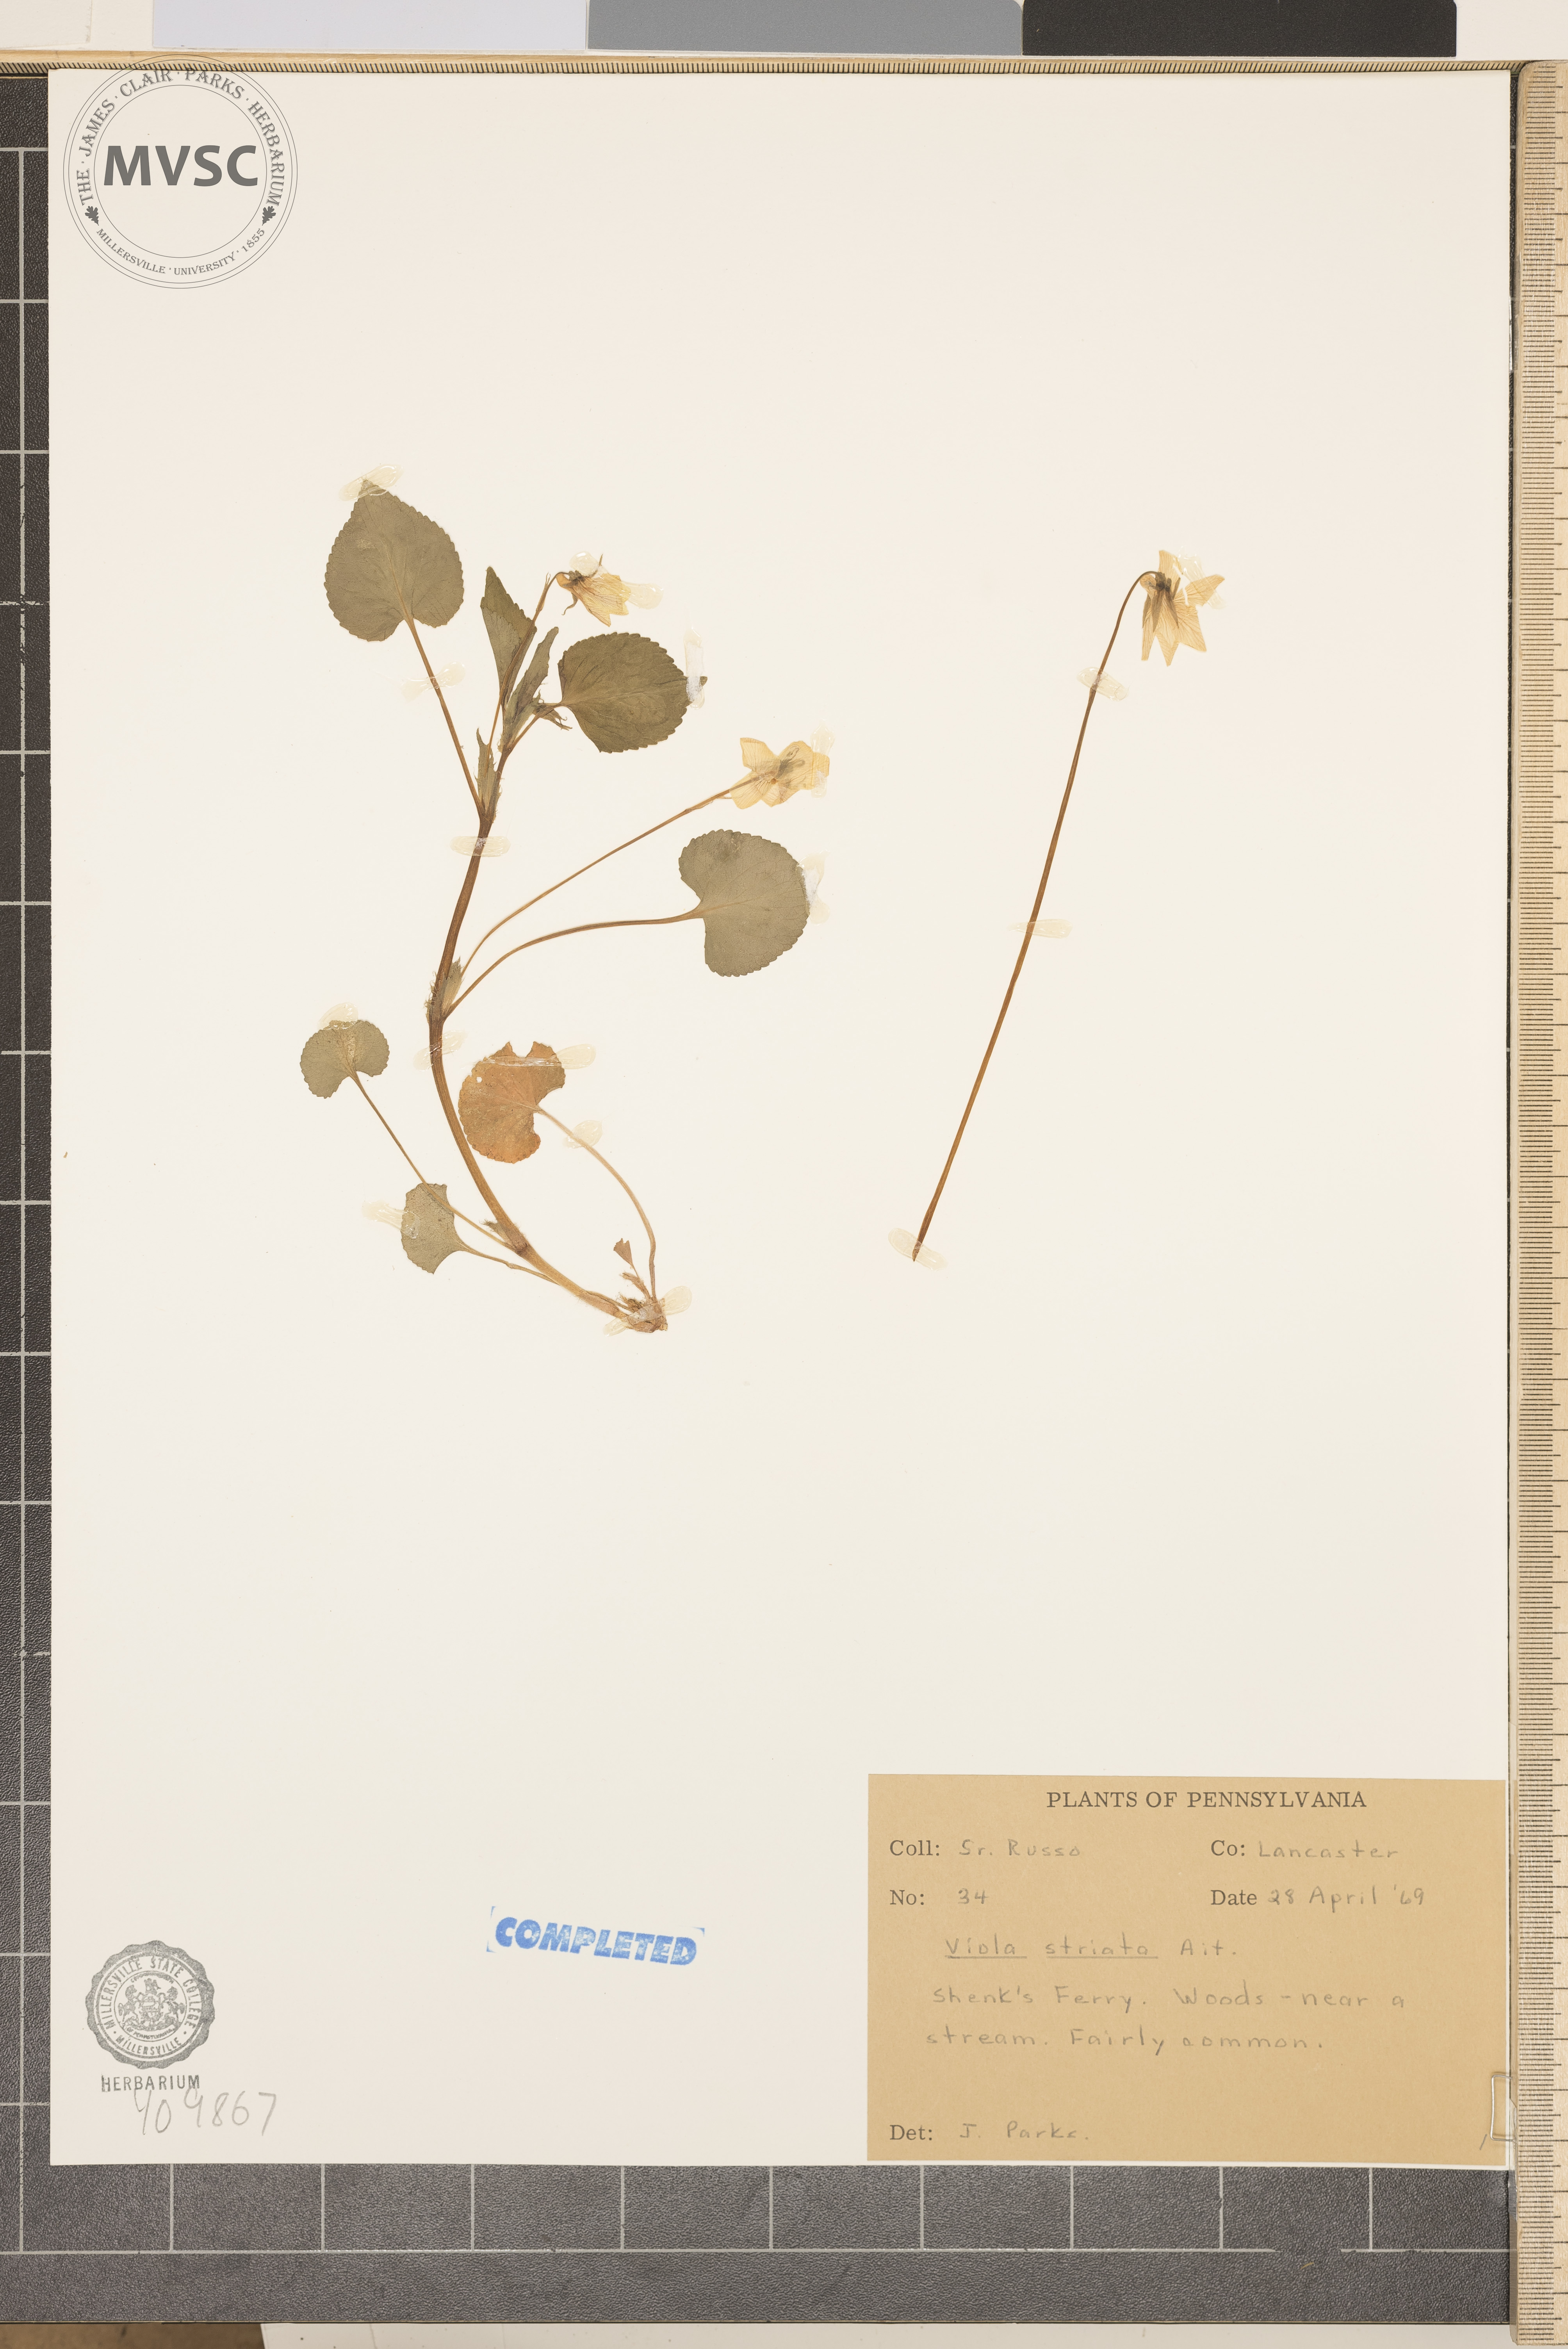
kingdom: Plantae
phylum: Tracheophyta
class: Magnoliopsida
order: Malpighiales
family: Violaceae
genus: Viola
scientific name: Viola striata
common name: striped violet
